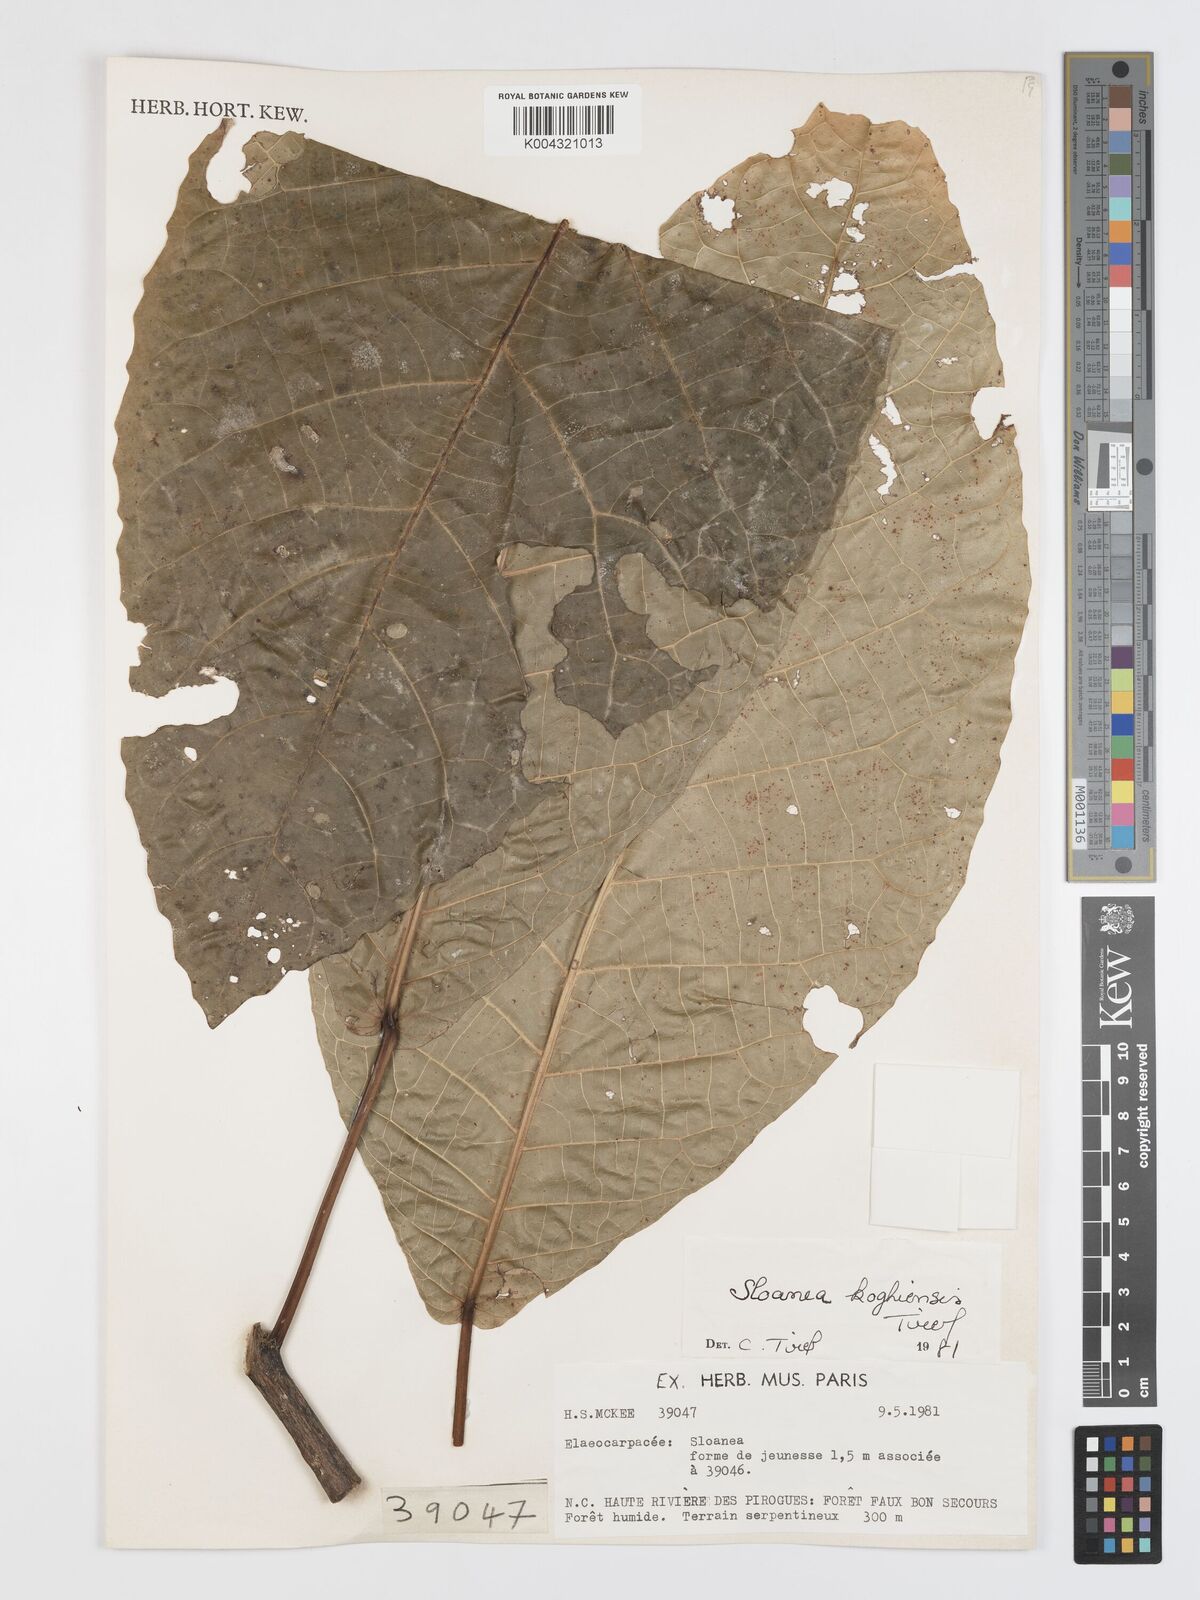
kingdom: Plantae
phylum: Tracheophyta
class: Magnoliopsida
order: Oxalidales
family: Elaeocarpaceae
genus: Sloanea
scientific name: Sloanea koghiensis
